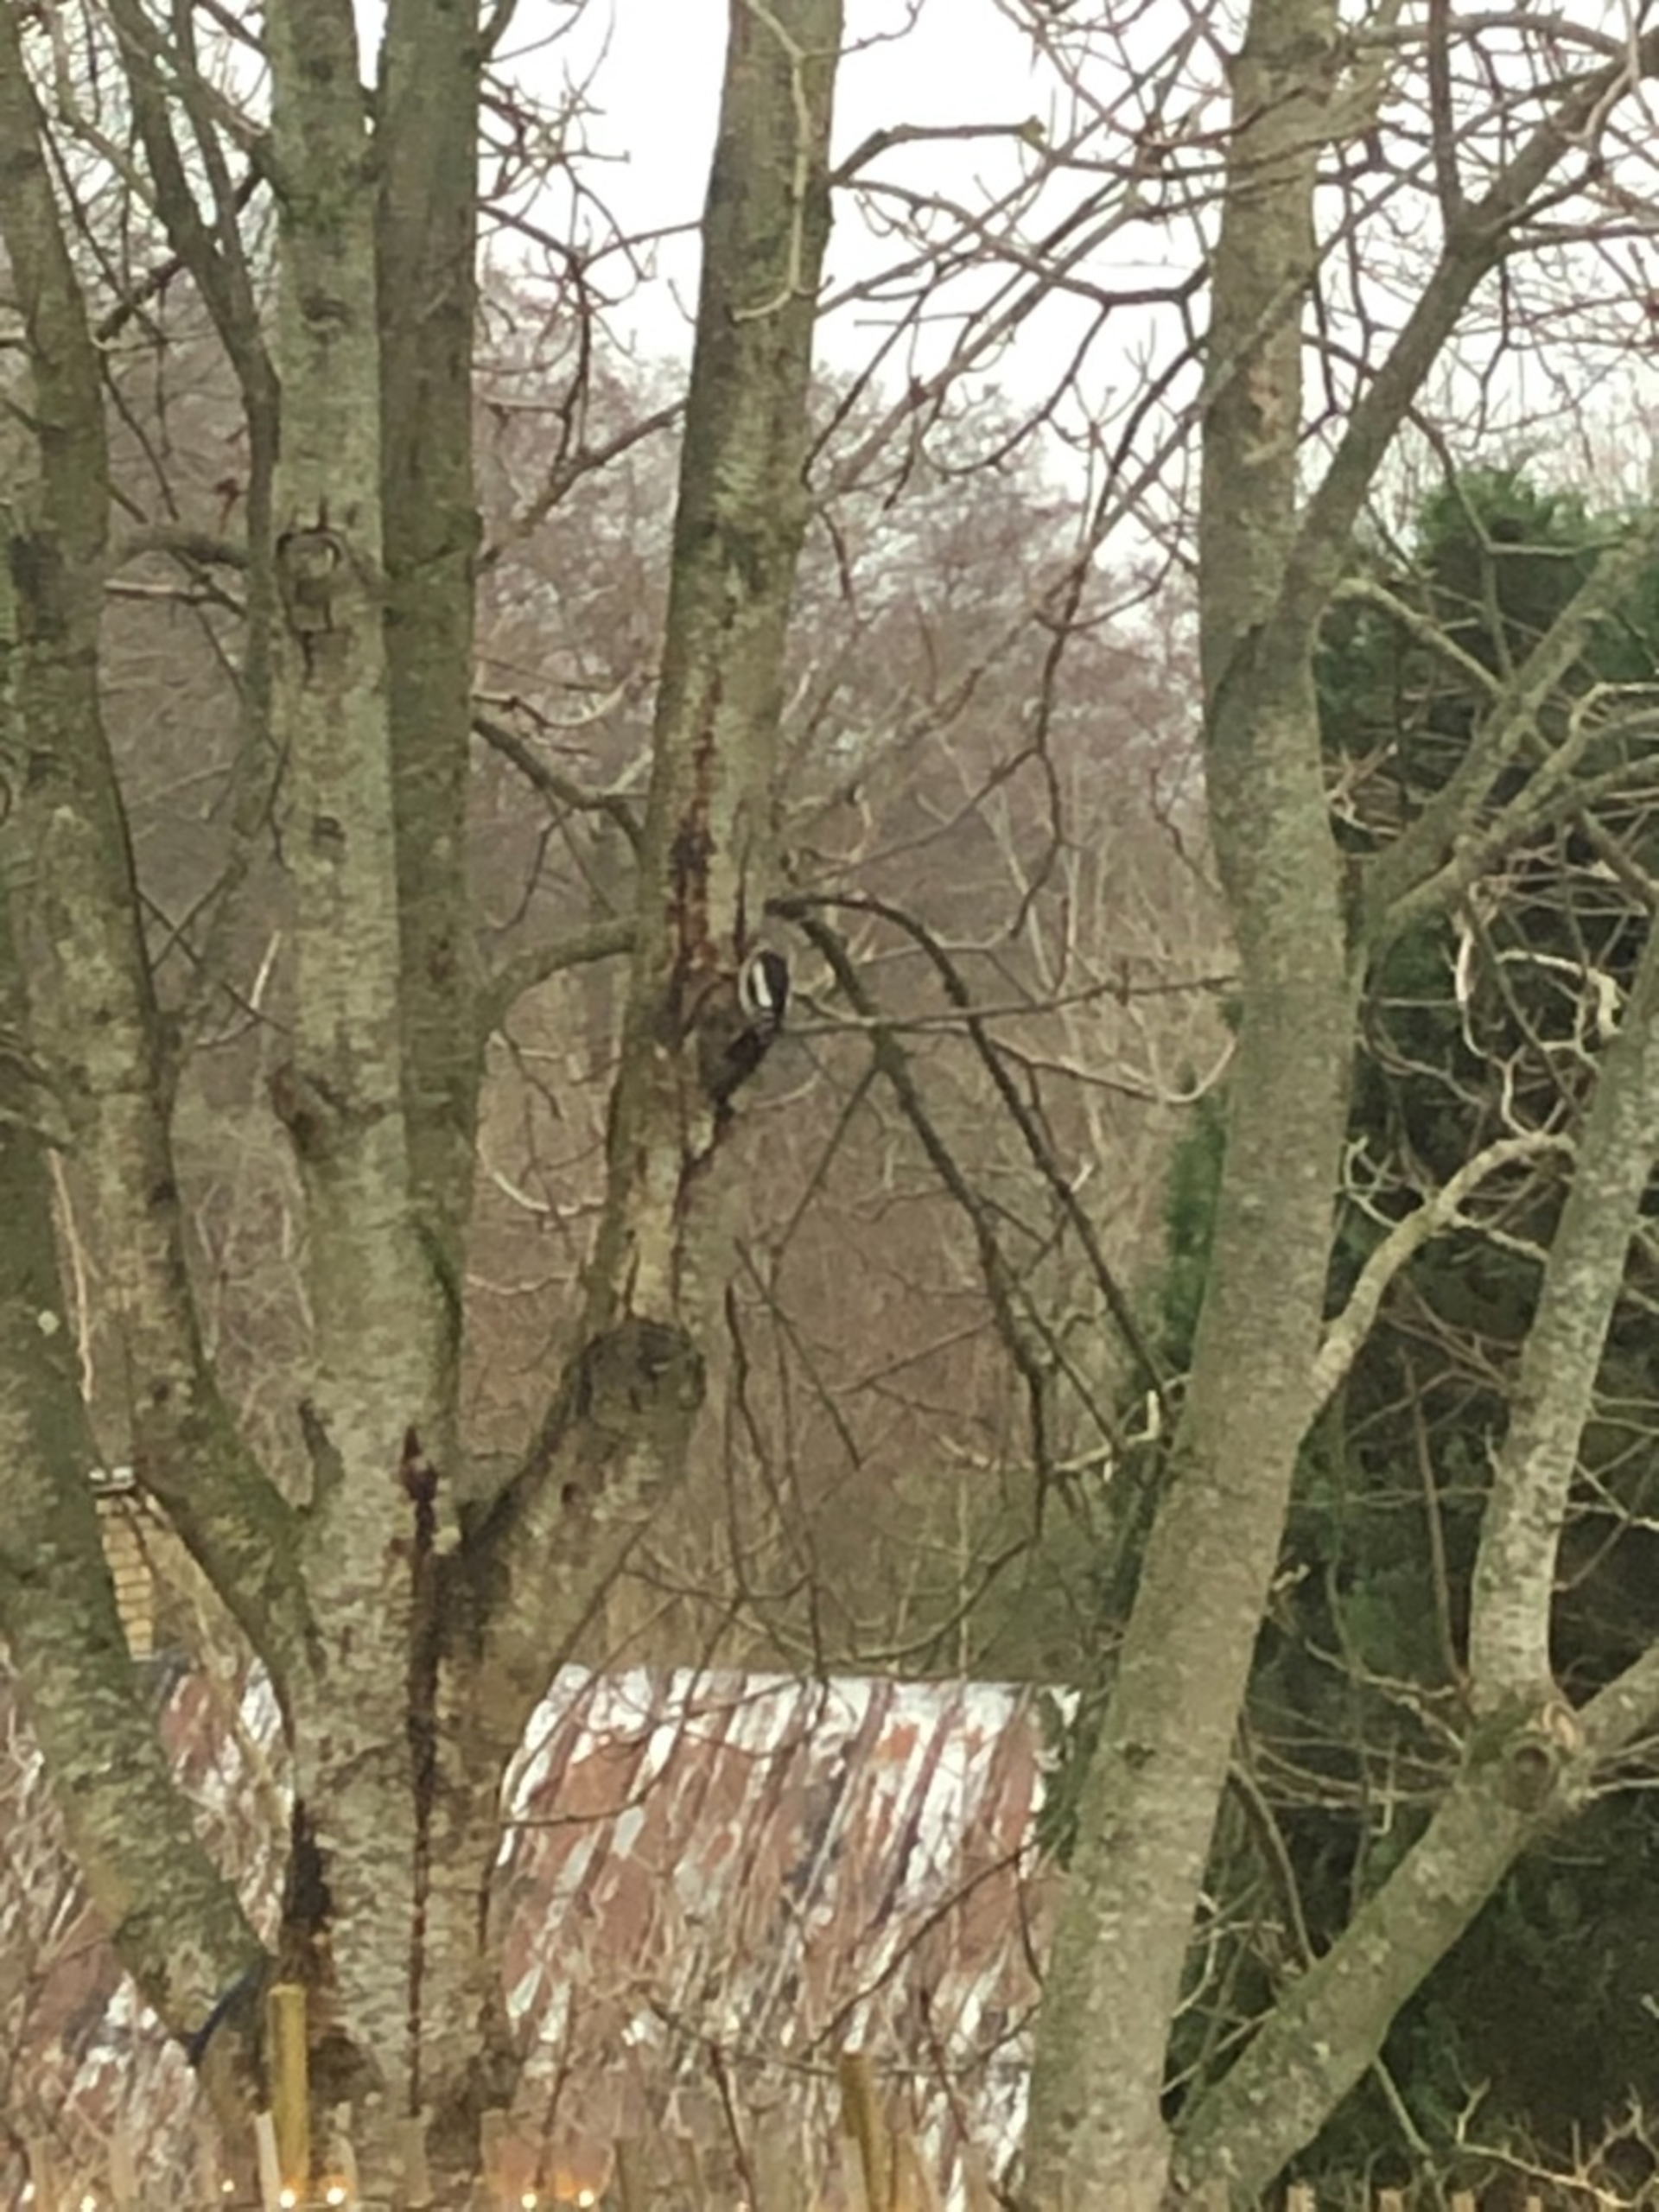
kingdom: Animalia
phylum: Chordata
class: Aves
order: Piciformes
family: Picidae
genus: Dendrocopos
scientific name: Dendrocopos major
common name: Stor flagspætte
